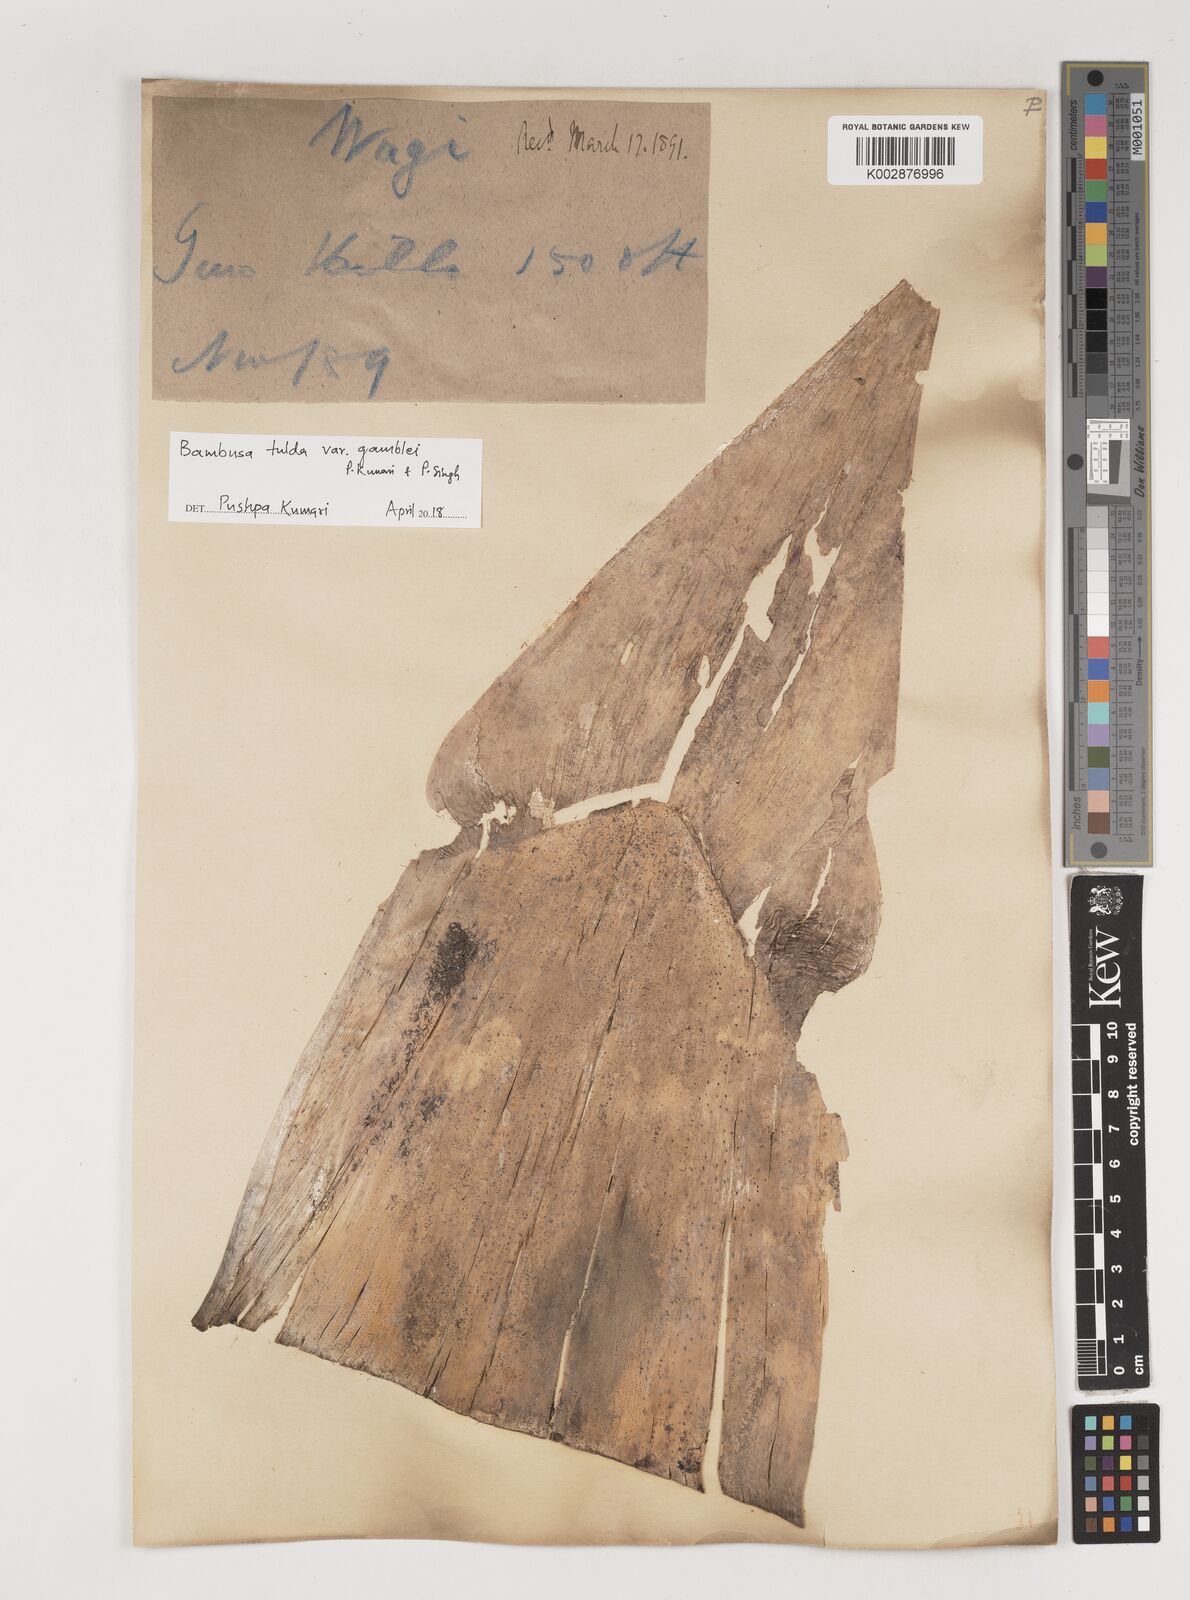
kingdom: Plantae
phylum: Tracheophyta
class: Liliopsida
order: Poales
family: Poaceae
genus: Bambusa
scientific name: Bambusa tulda
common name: Bengal bamboo
